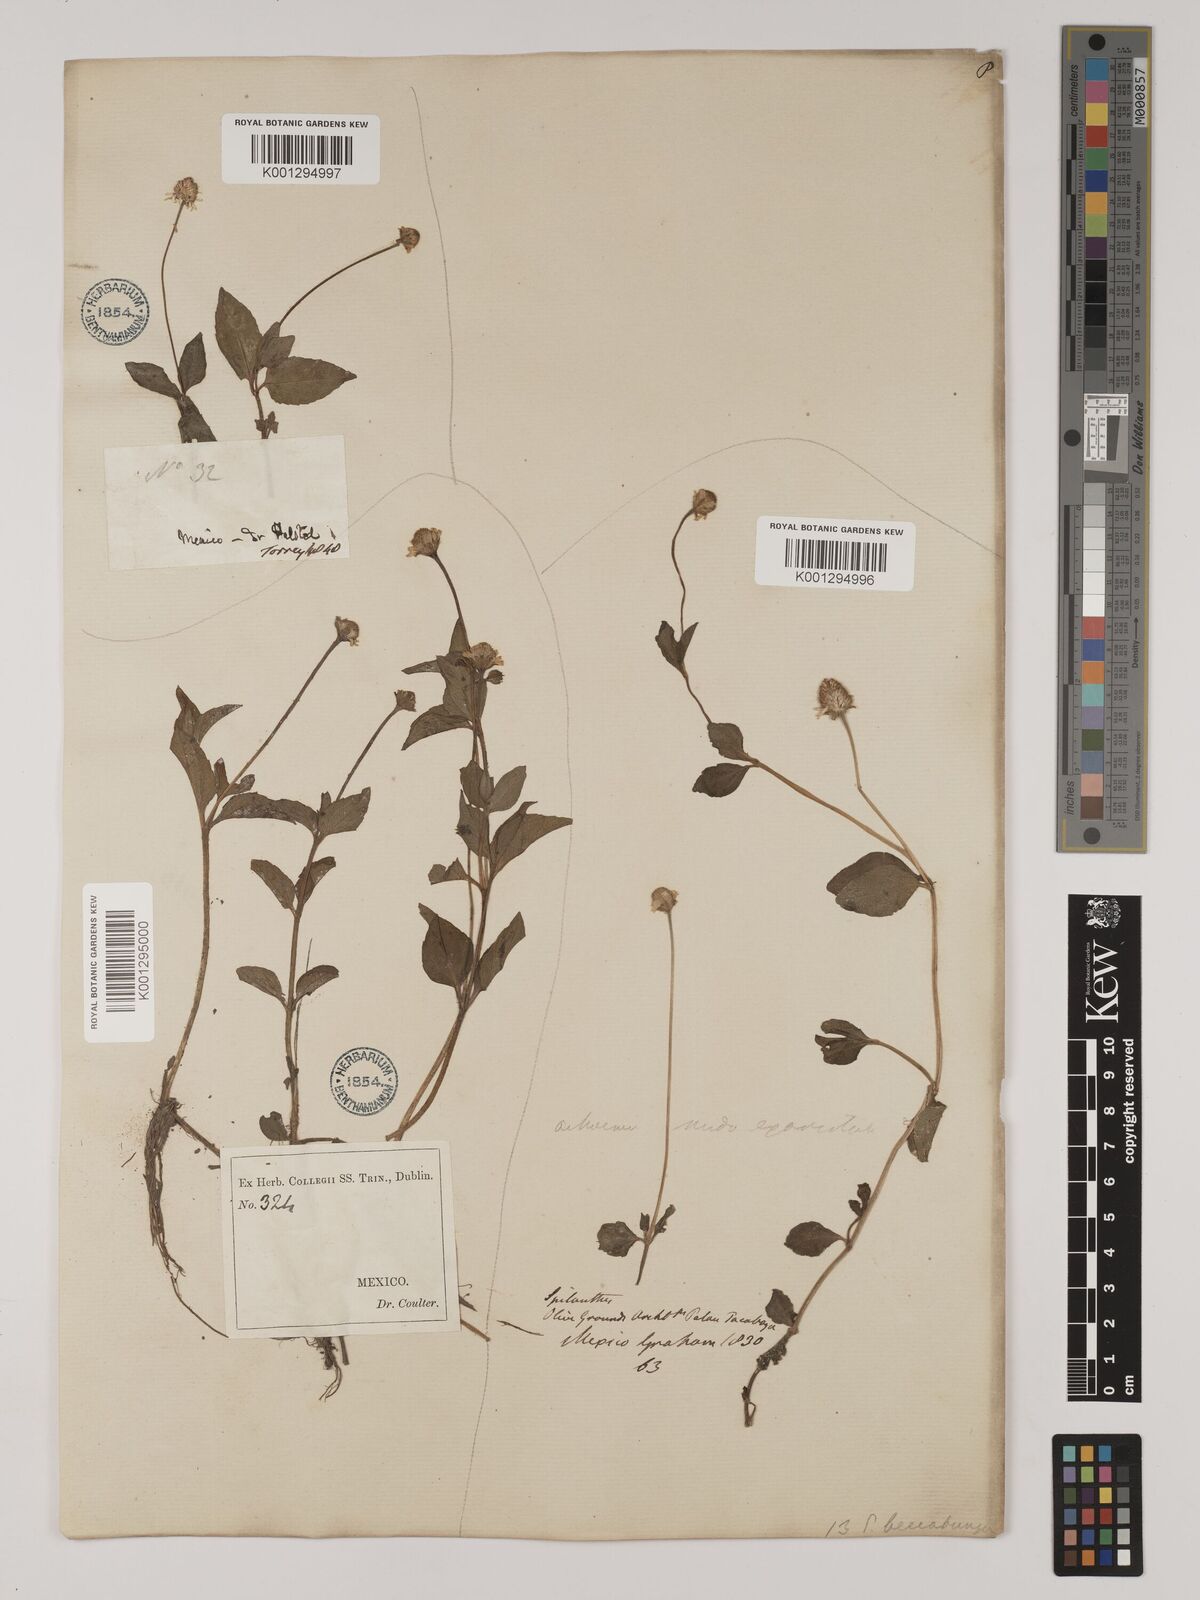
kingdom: Plantae
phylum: Tracheophyta
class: Magnoliopsida
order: Asterales
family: Asteraceae
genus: Heliopsis
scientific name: Heliopsis buphthalmoides
